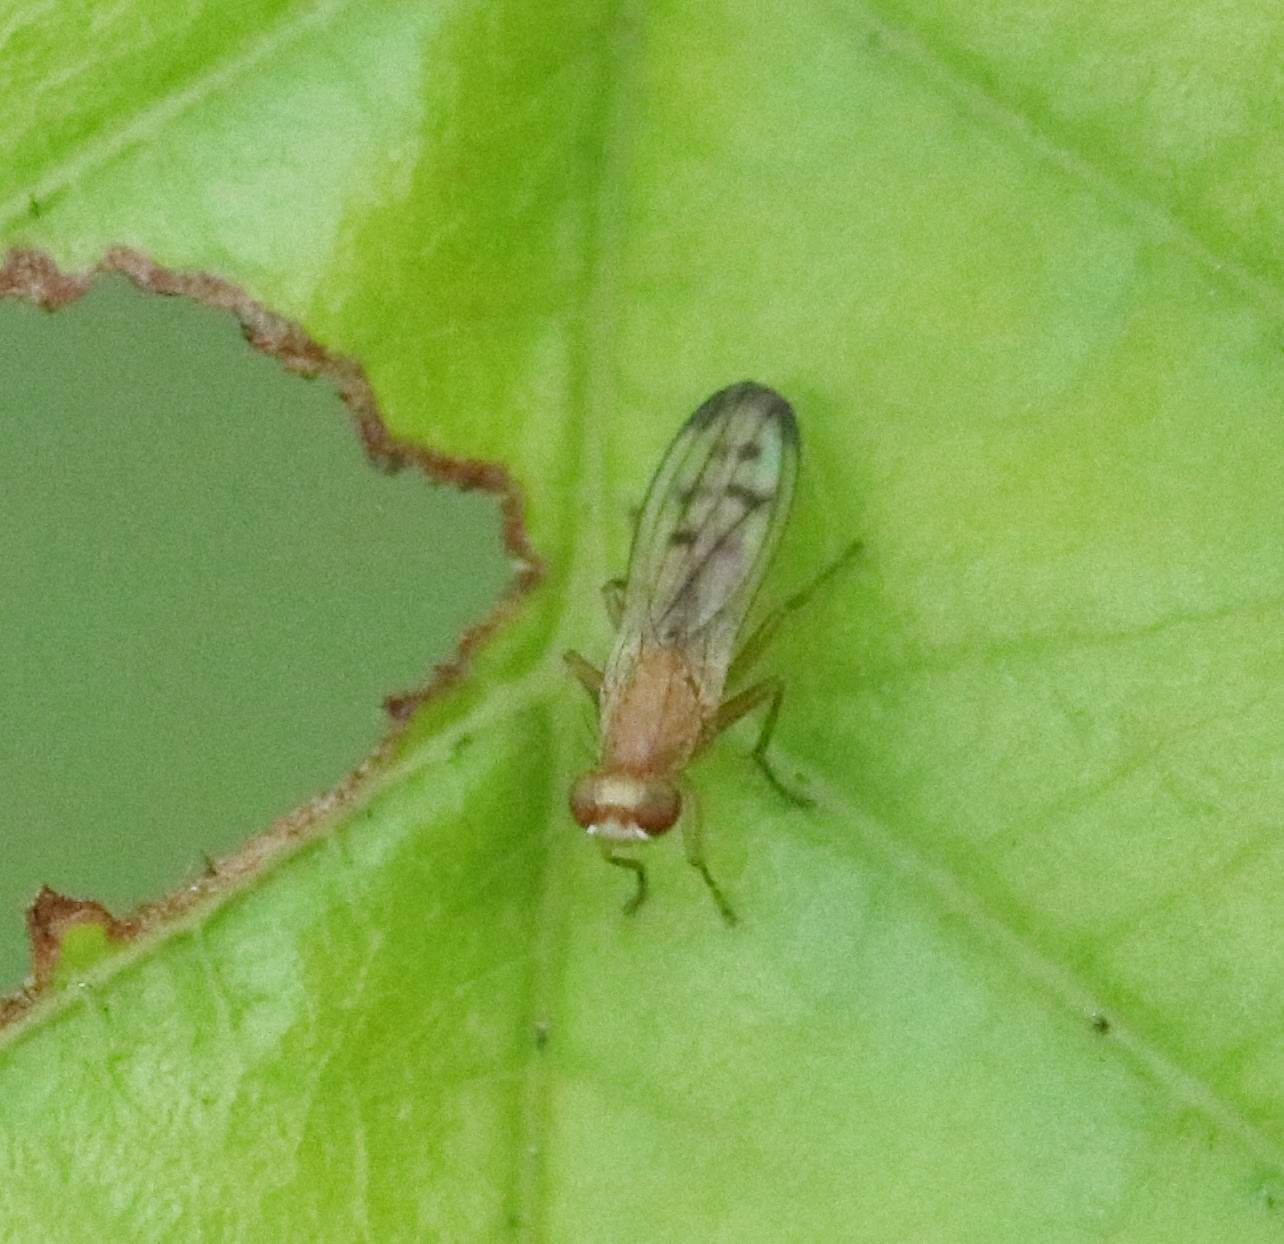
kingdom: Animalia
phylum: Arthropoda
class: Insecta
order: Diptera
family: Opomyzidae
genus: Opomyza
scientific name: Opomyza florum
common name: Gul græsflue
